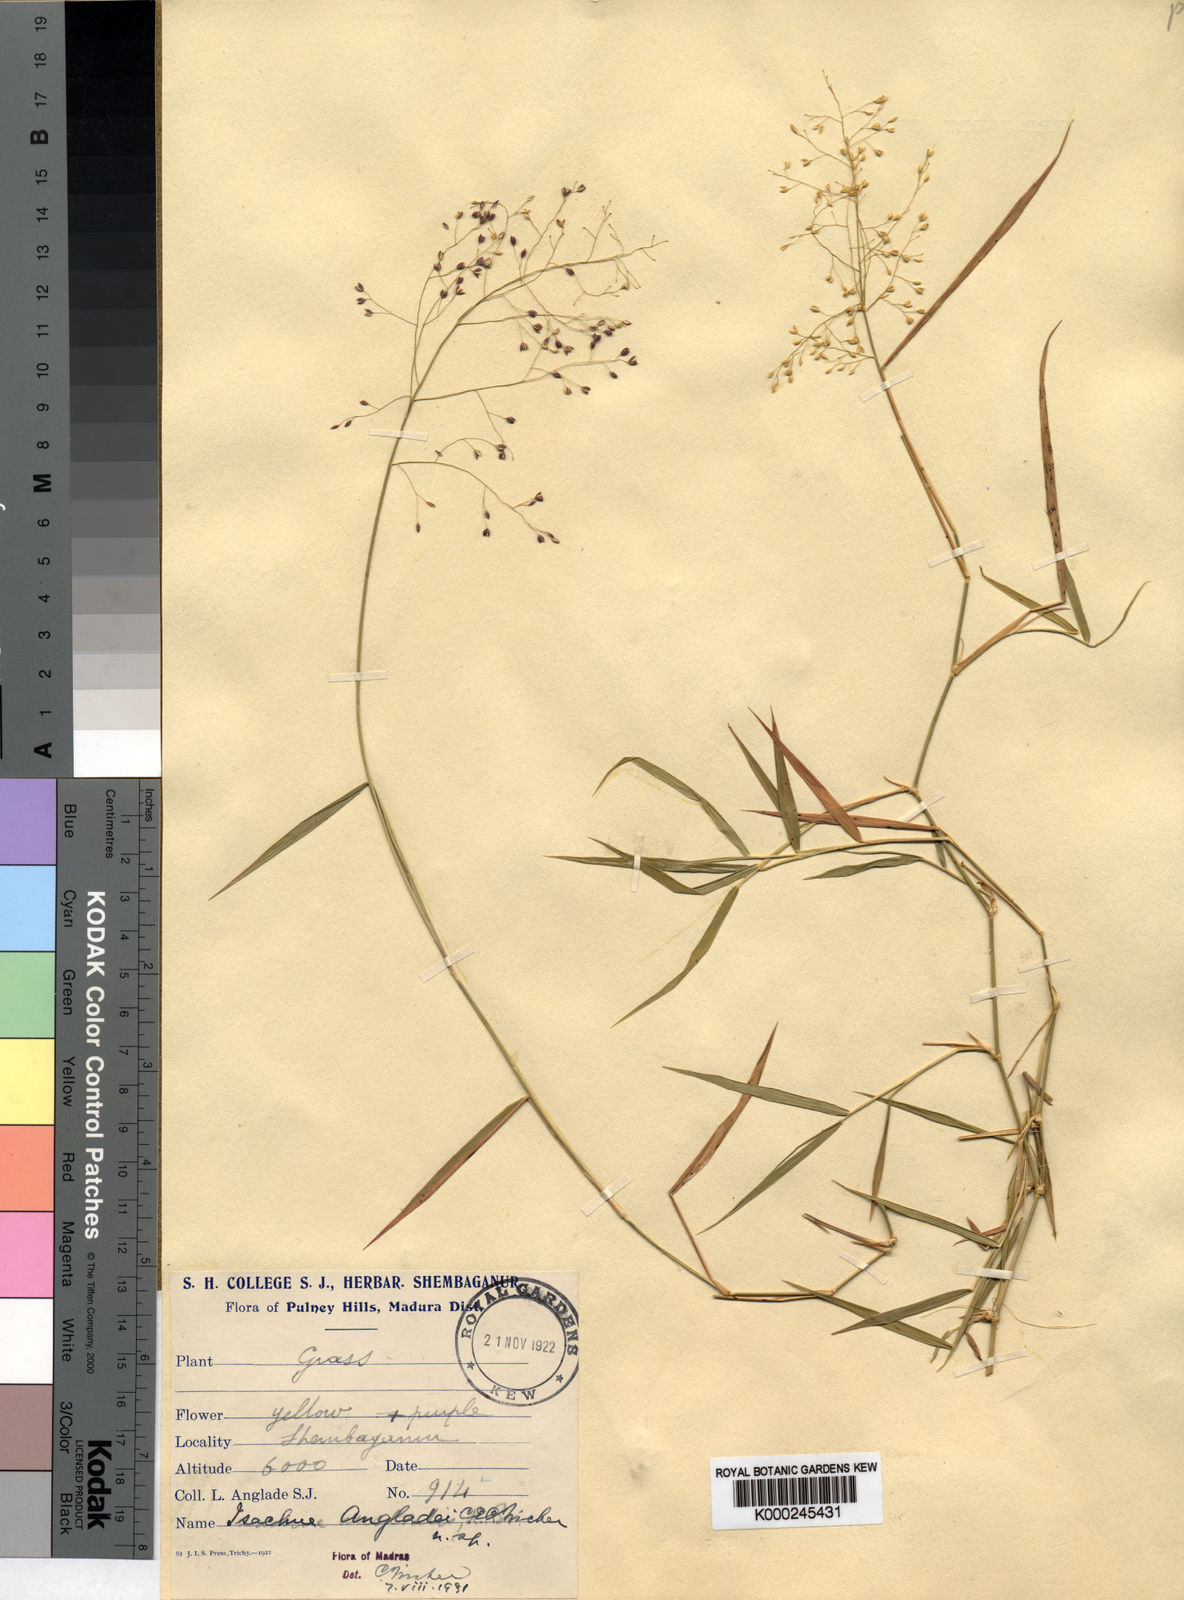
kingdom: Plantae
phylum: Tracheophyta
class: Liliopsida
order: Poales
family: Poaceae
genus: Isachne
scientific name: Isachne angladei
